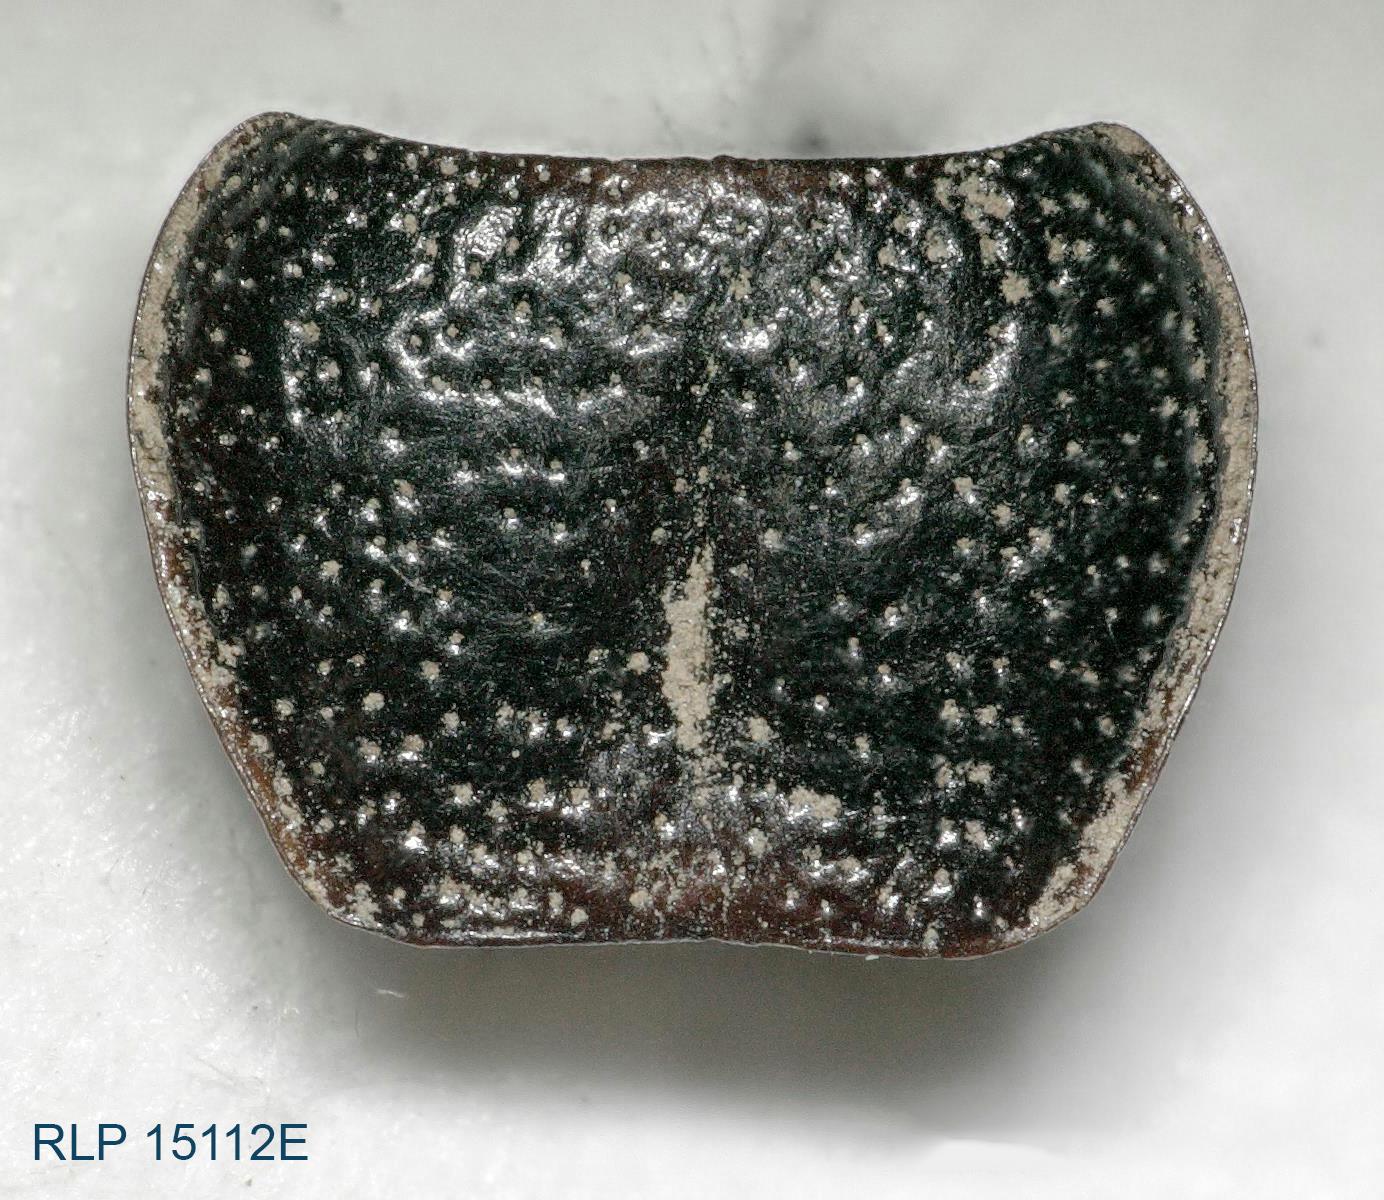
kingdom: Animalia
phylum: Arthropoda
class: Insecta
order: Coleoptera
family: Carabidae
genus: Dicheirus
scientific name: Dicheirus dilatatus
